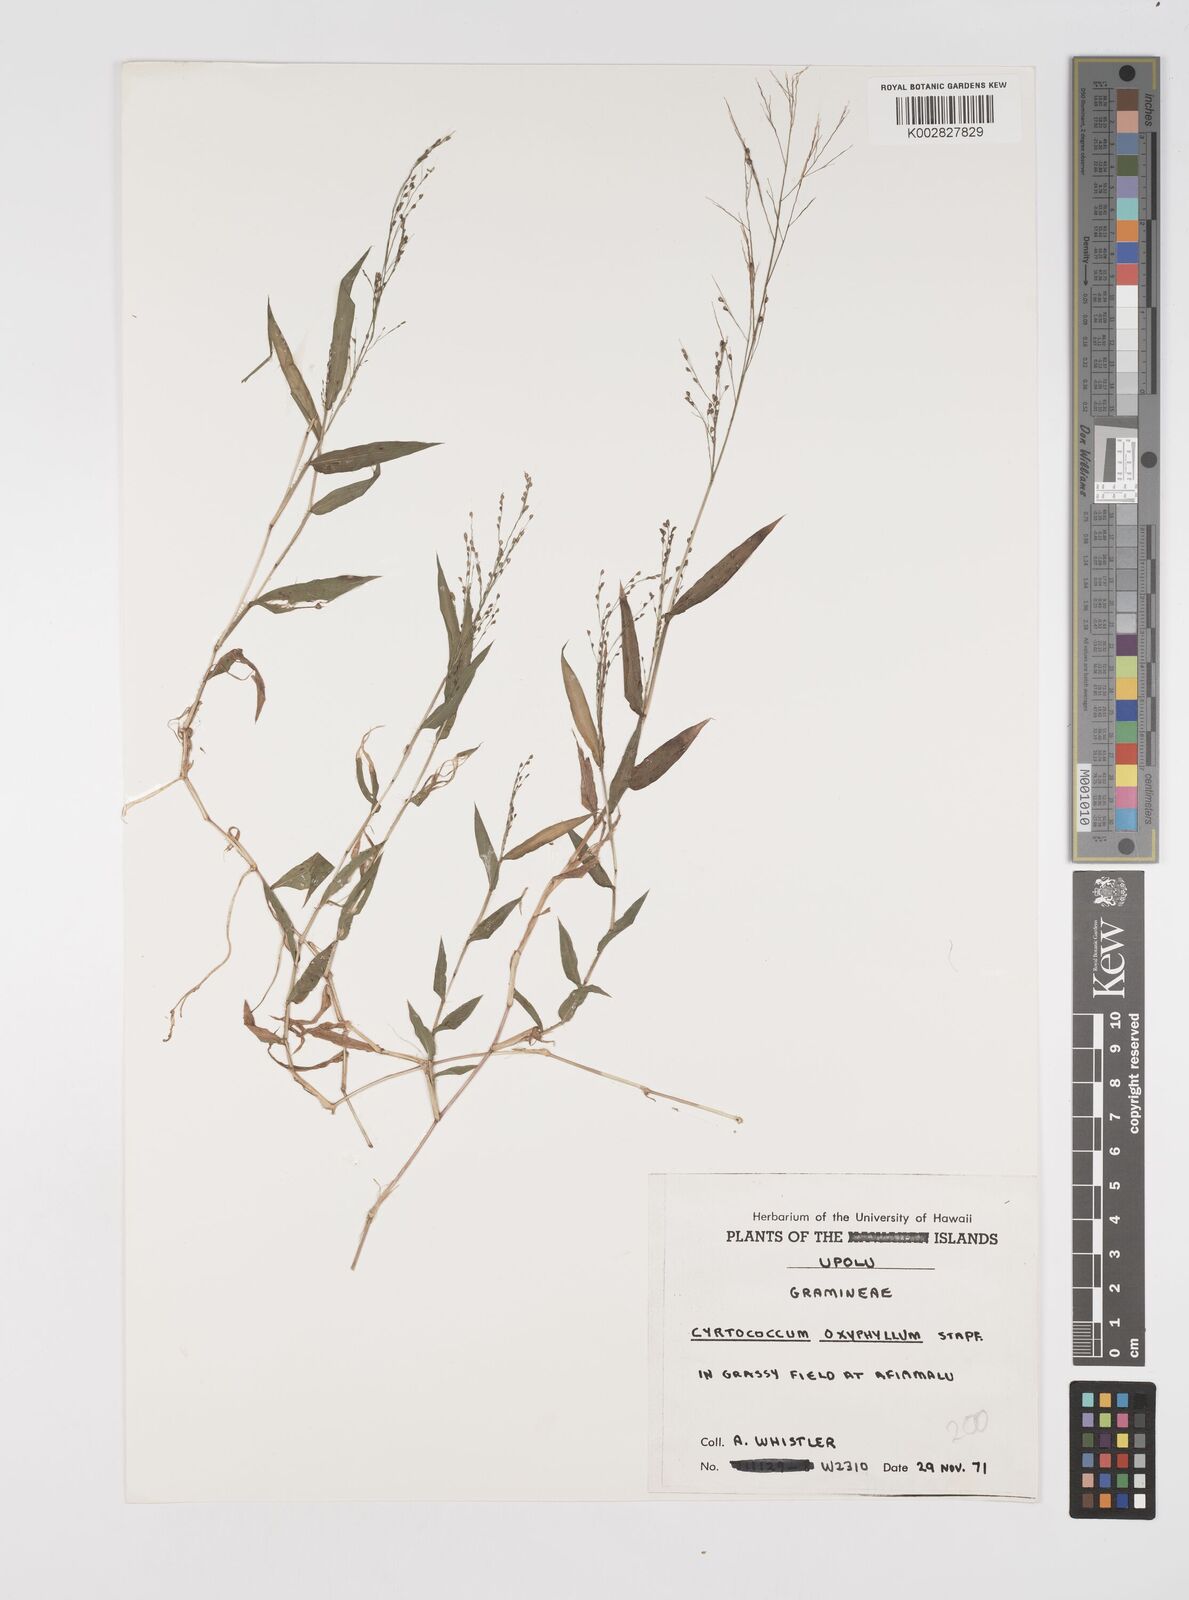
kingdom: Plantae
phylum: Tracheophyta
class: Liliopsida
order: Poales
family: Poaceae
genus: Cyrtococcum
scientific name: Cyrtococcum patens
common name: Broad-leaved bowgrass
